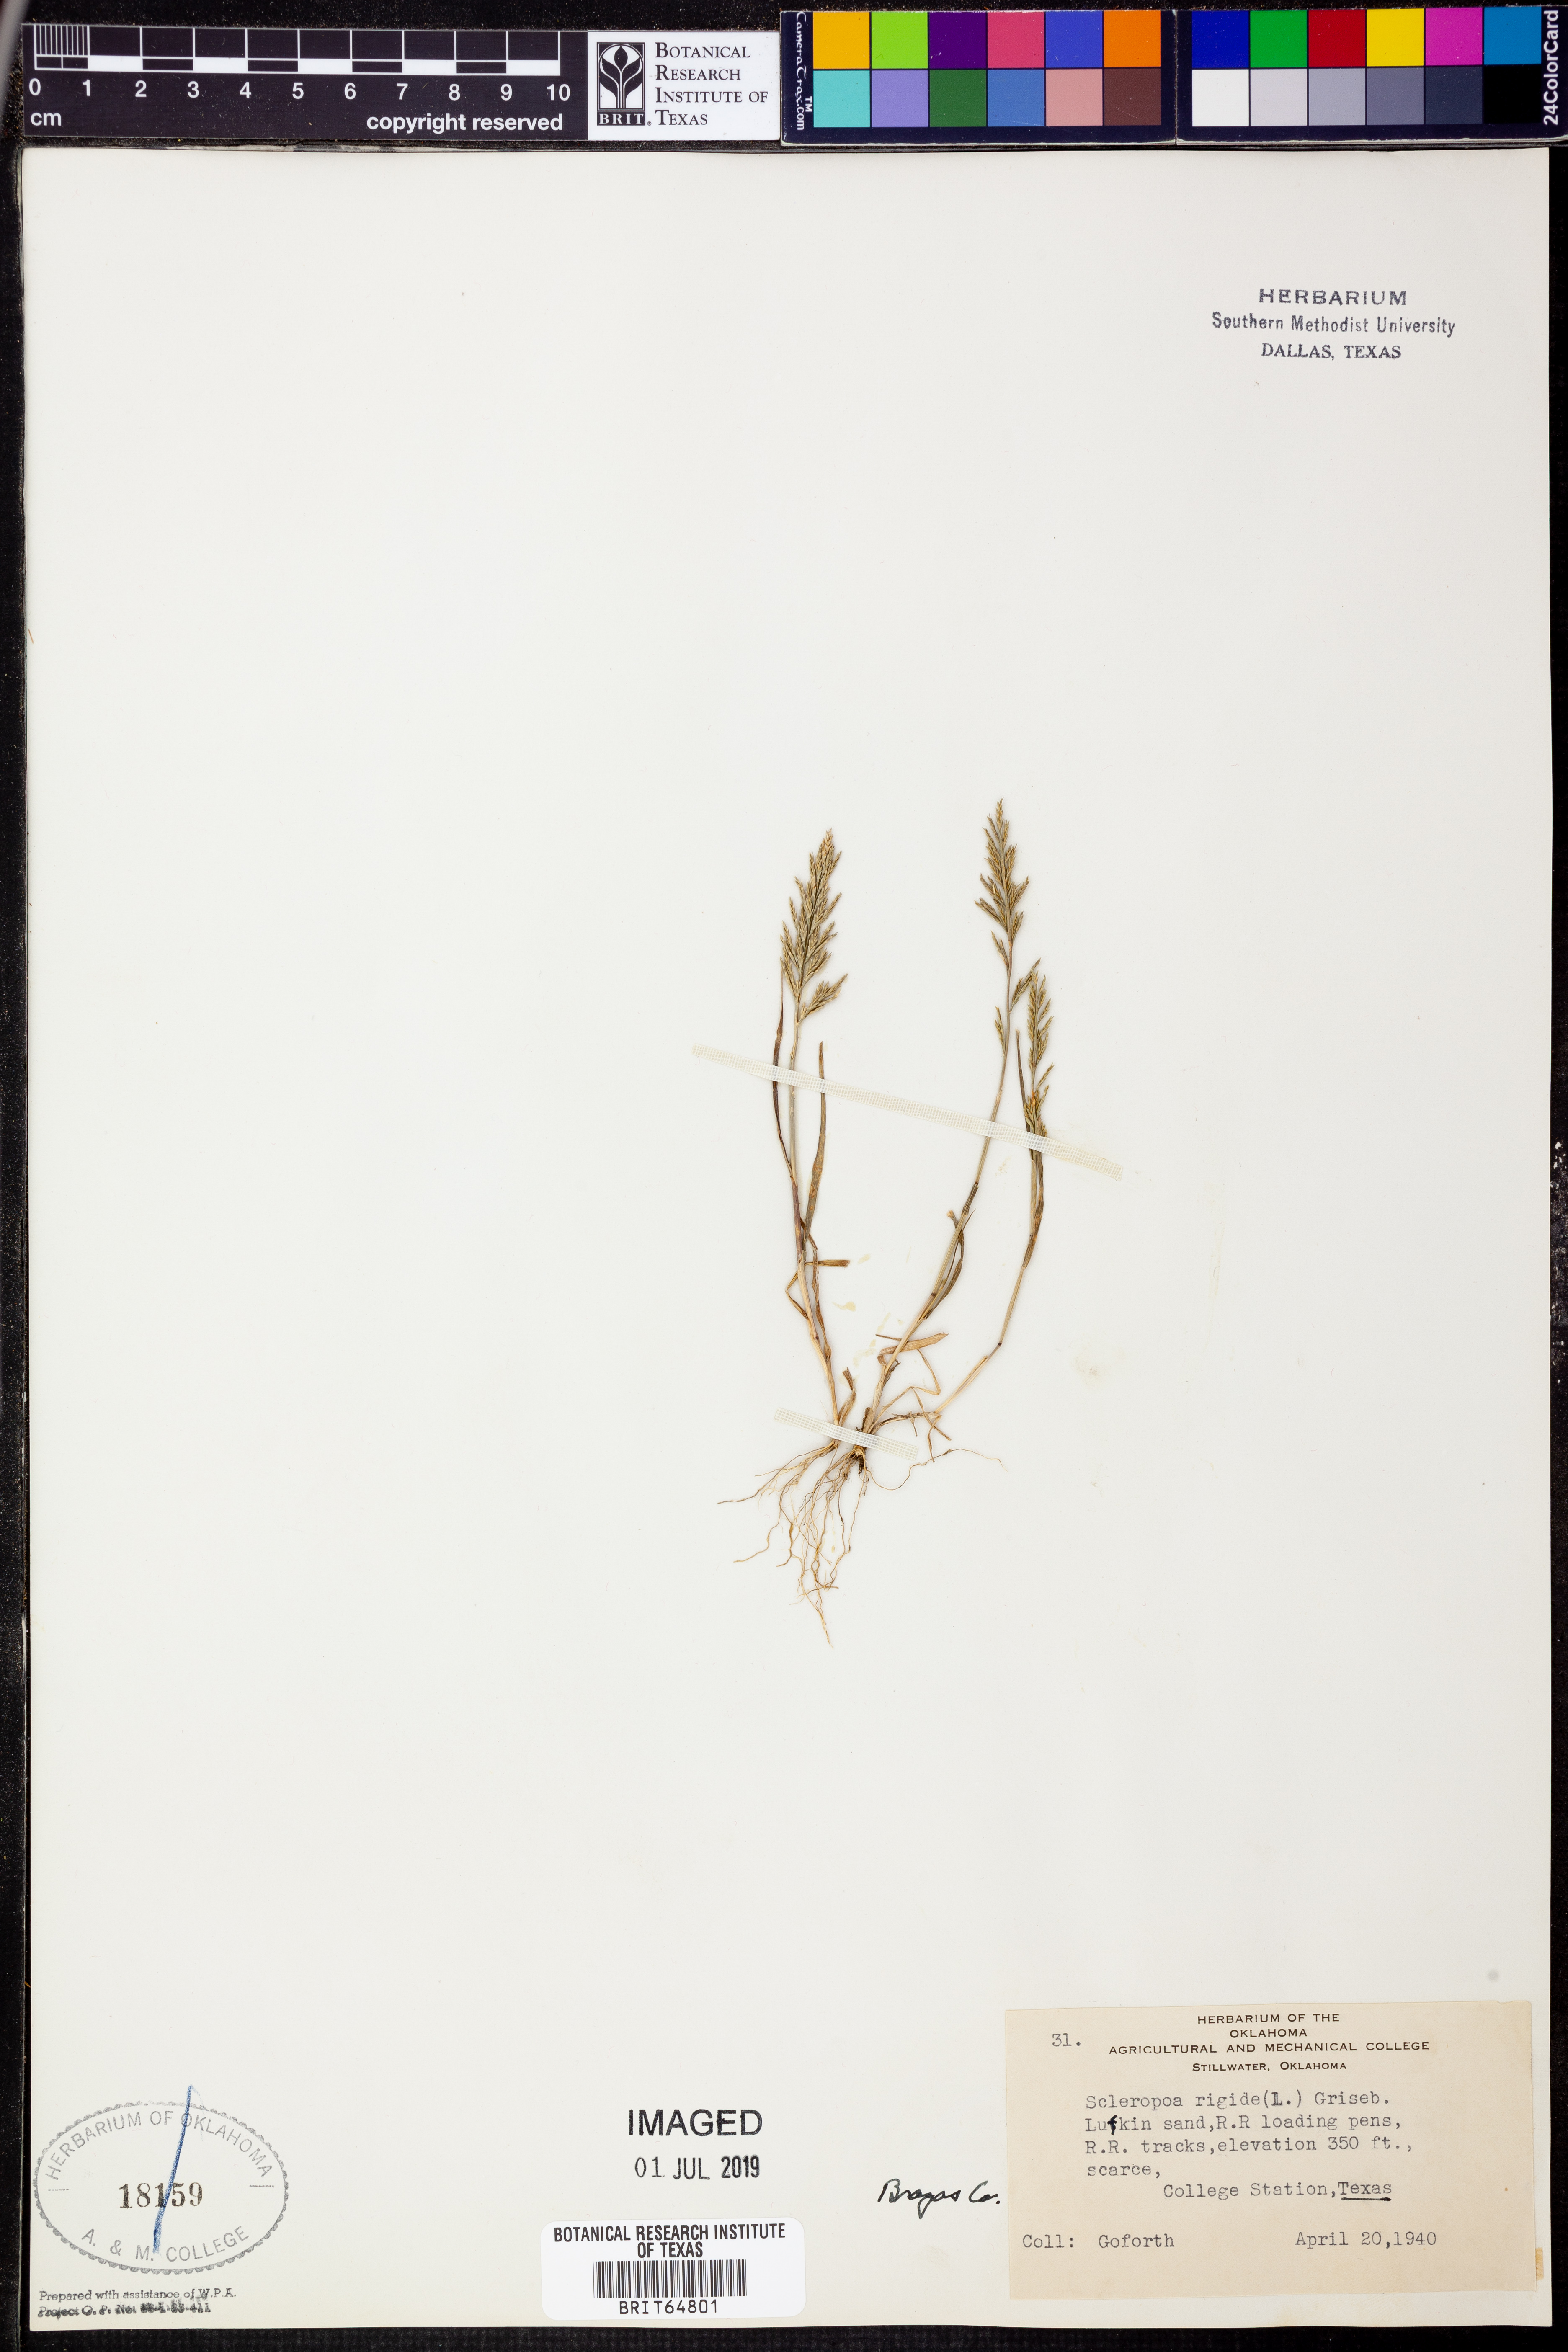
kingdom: Plantae
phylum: Tracheophyta
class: Liliopsida
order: Poales
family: Poaceae
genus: Catapodium
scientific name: Catapodium rigidum
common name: Fern-grass
